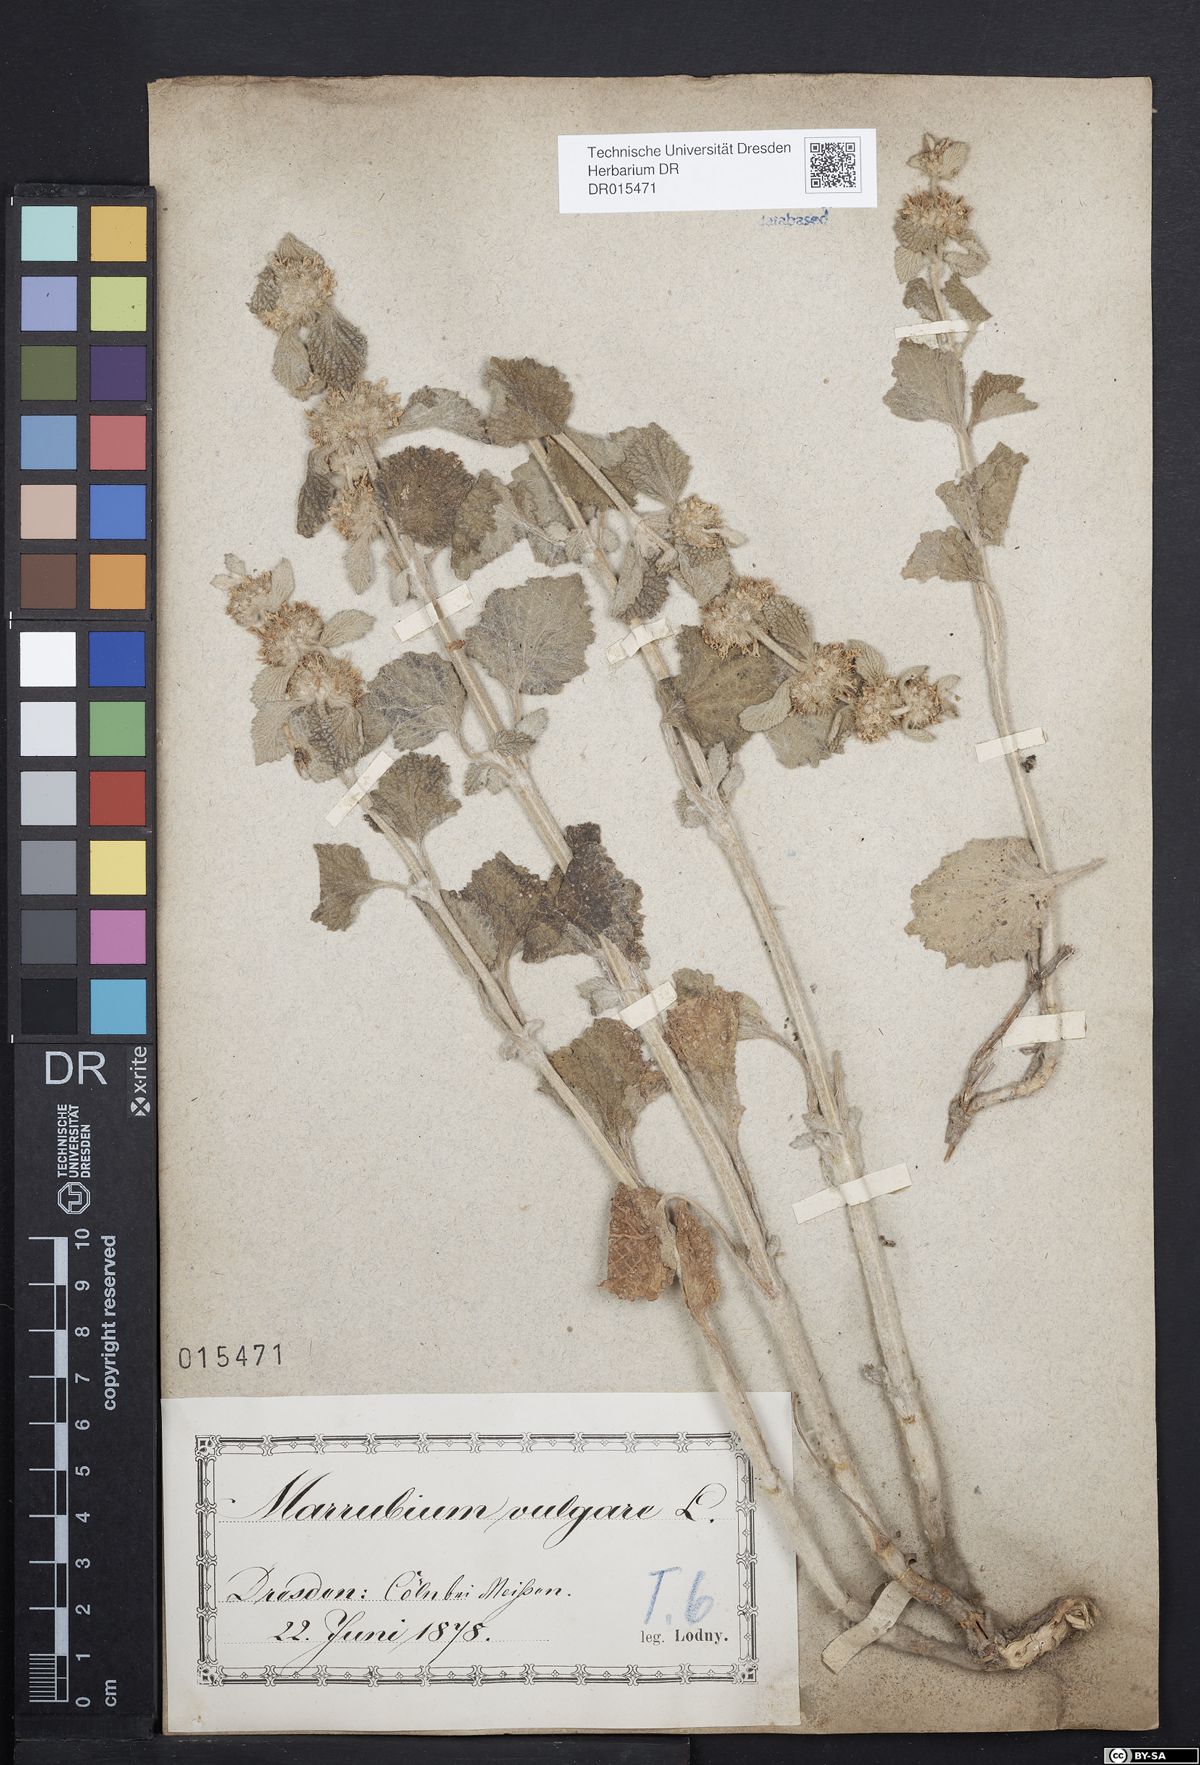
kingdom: Plantae
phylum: Tracheophyta
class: Magnoliopsida
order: Lamiales
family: Lamiaceae
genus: Marrubium
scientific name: Marrubium vulgare
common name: Horehound
